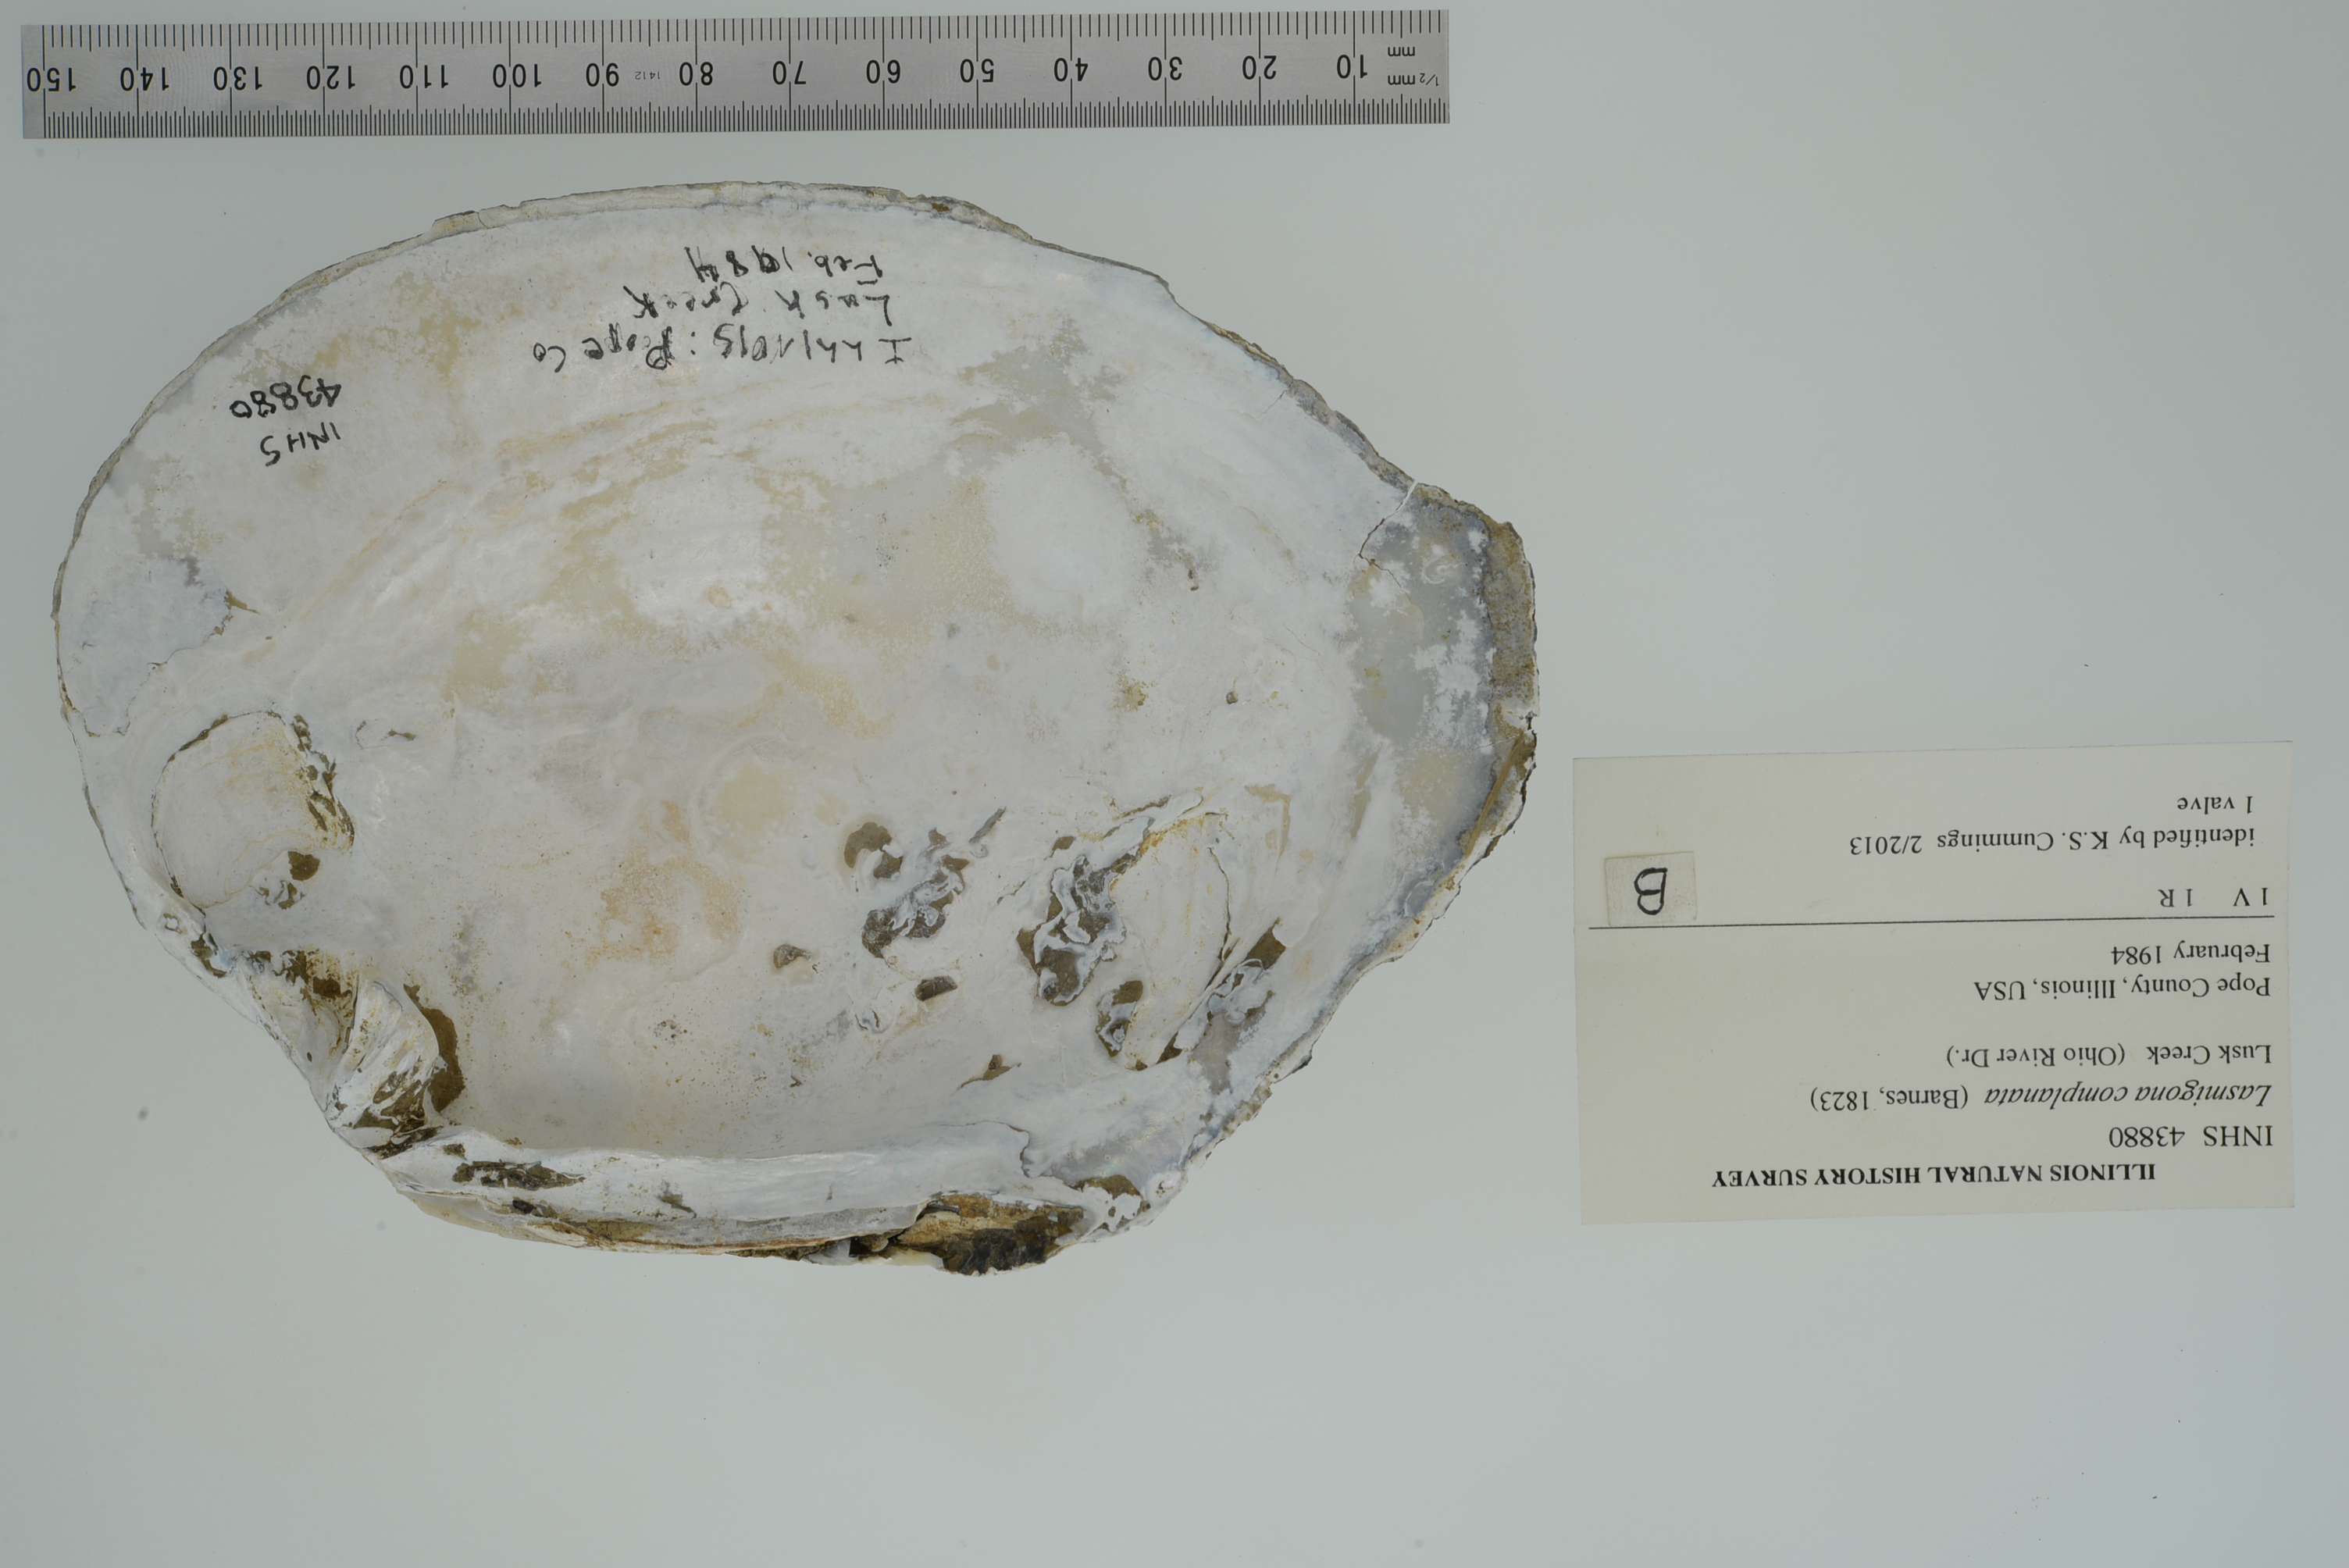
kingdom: Animalia
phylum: Mollusca
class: Bivalvia
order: Unionida
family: Unionidae
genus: Lasmigona
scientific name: Lasmigona complanata
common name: White heelsplitter
